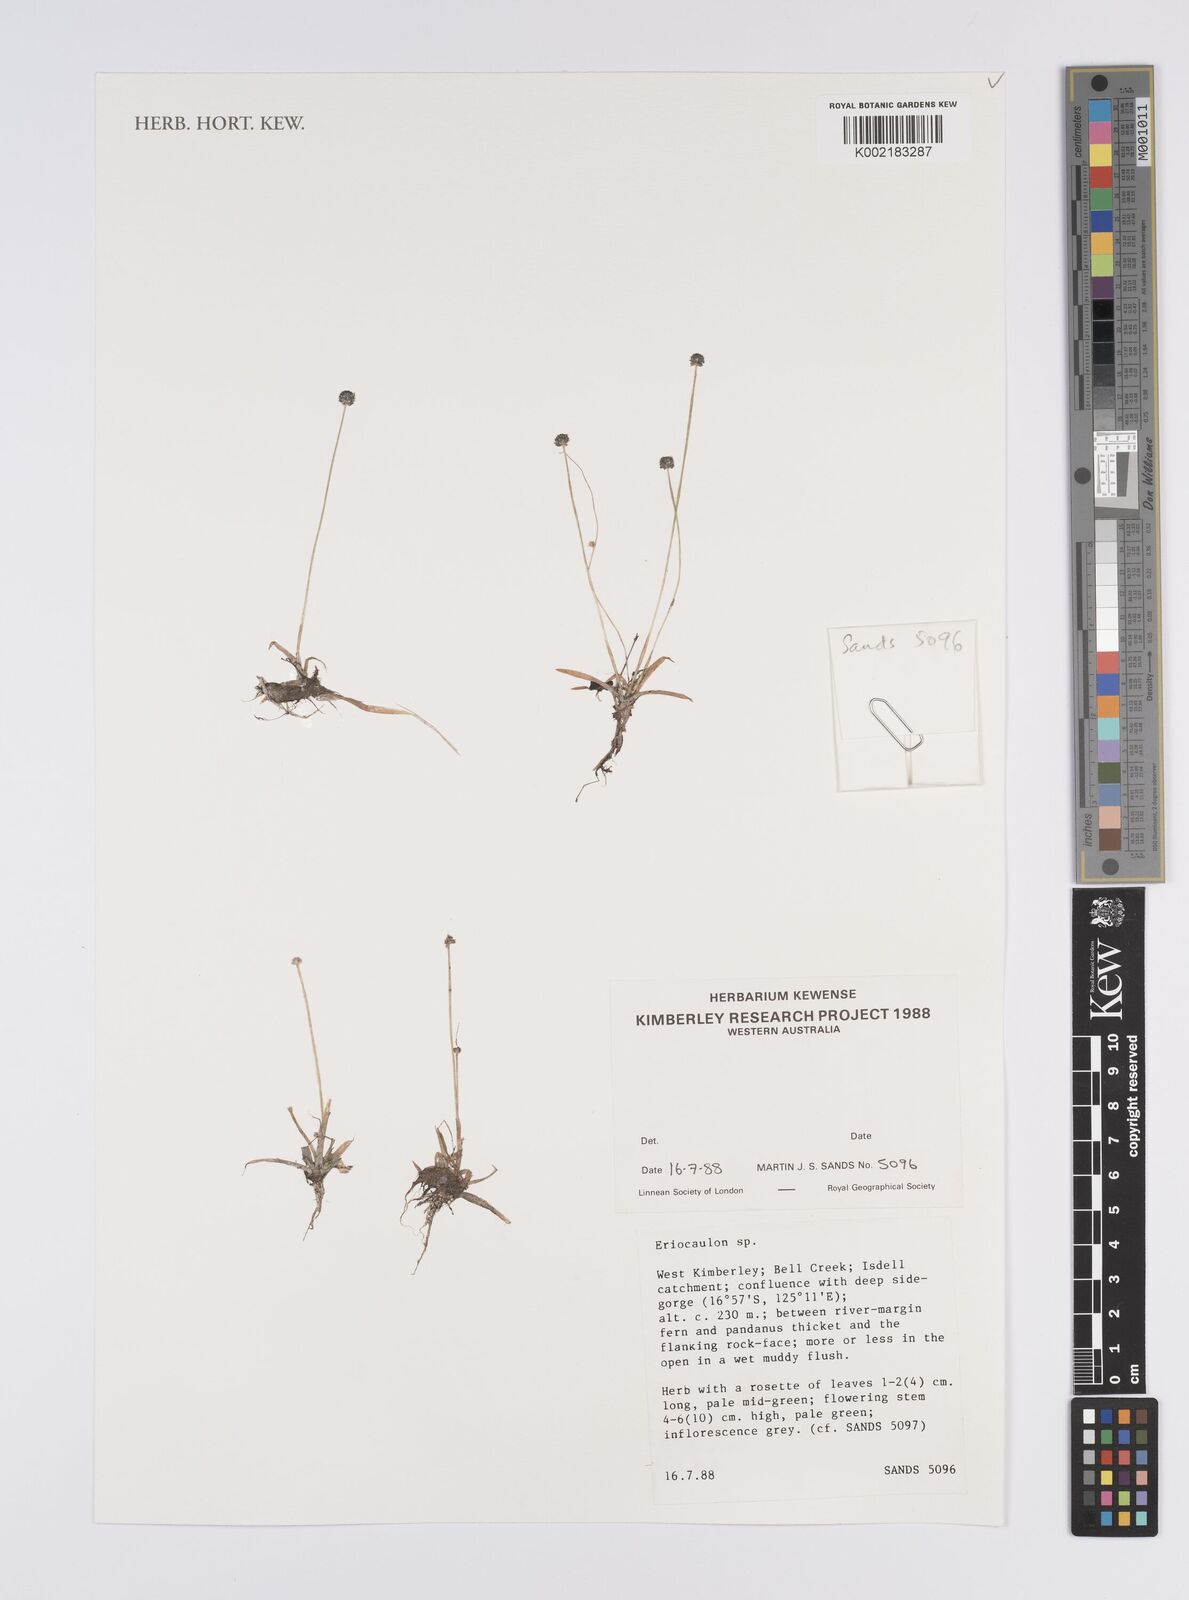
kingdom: Plantae
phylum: Tracheophyta
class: Liliopsida
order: Poales
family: Eriocaulaceae
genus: Eriocaulon
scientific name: Eriocaulon
